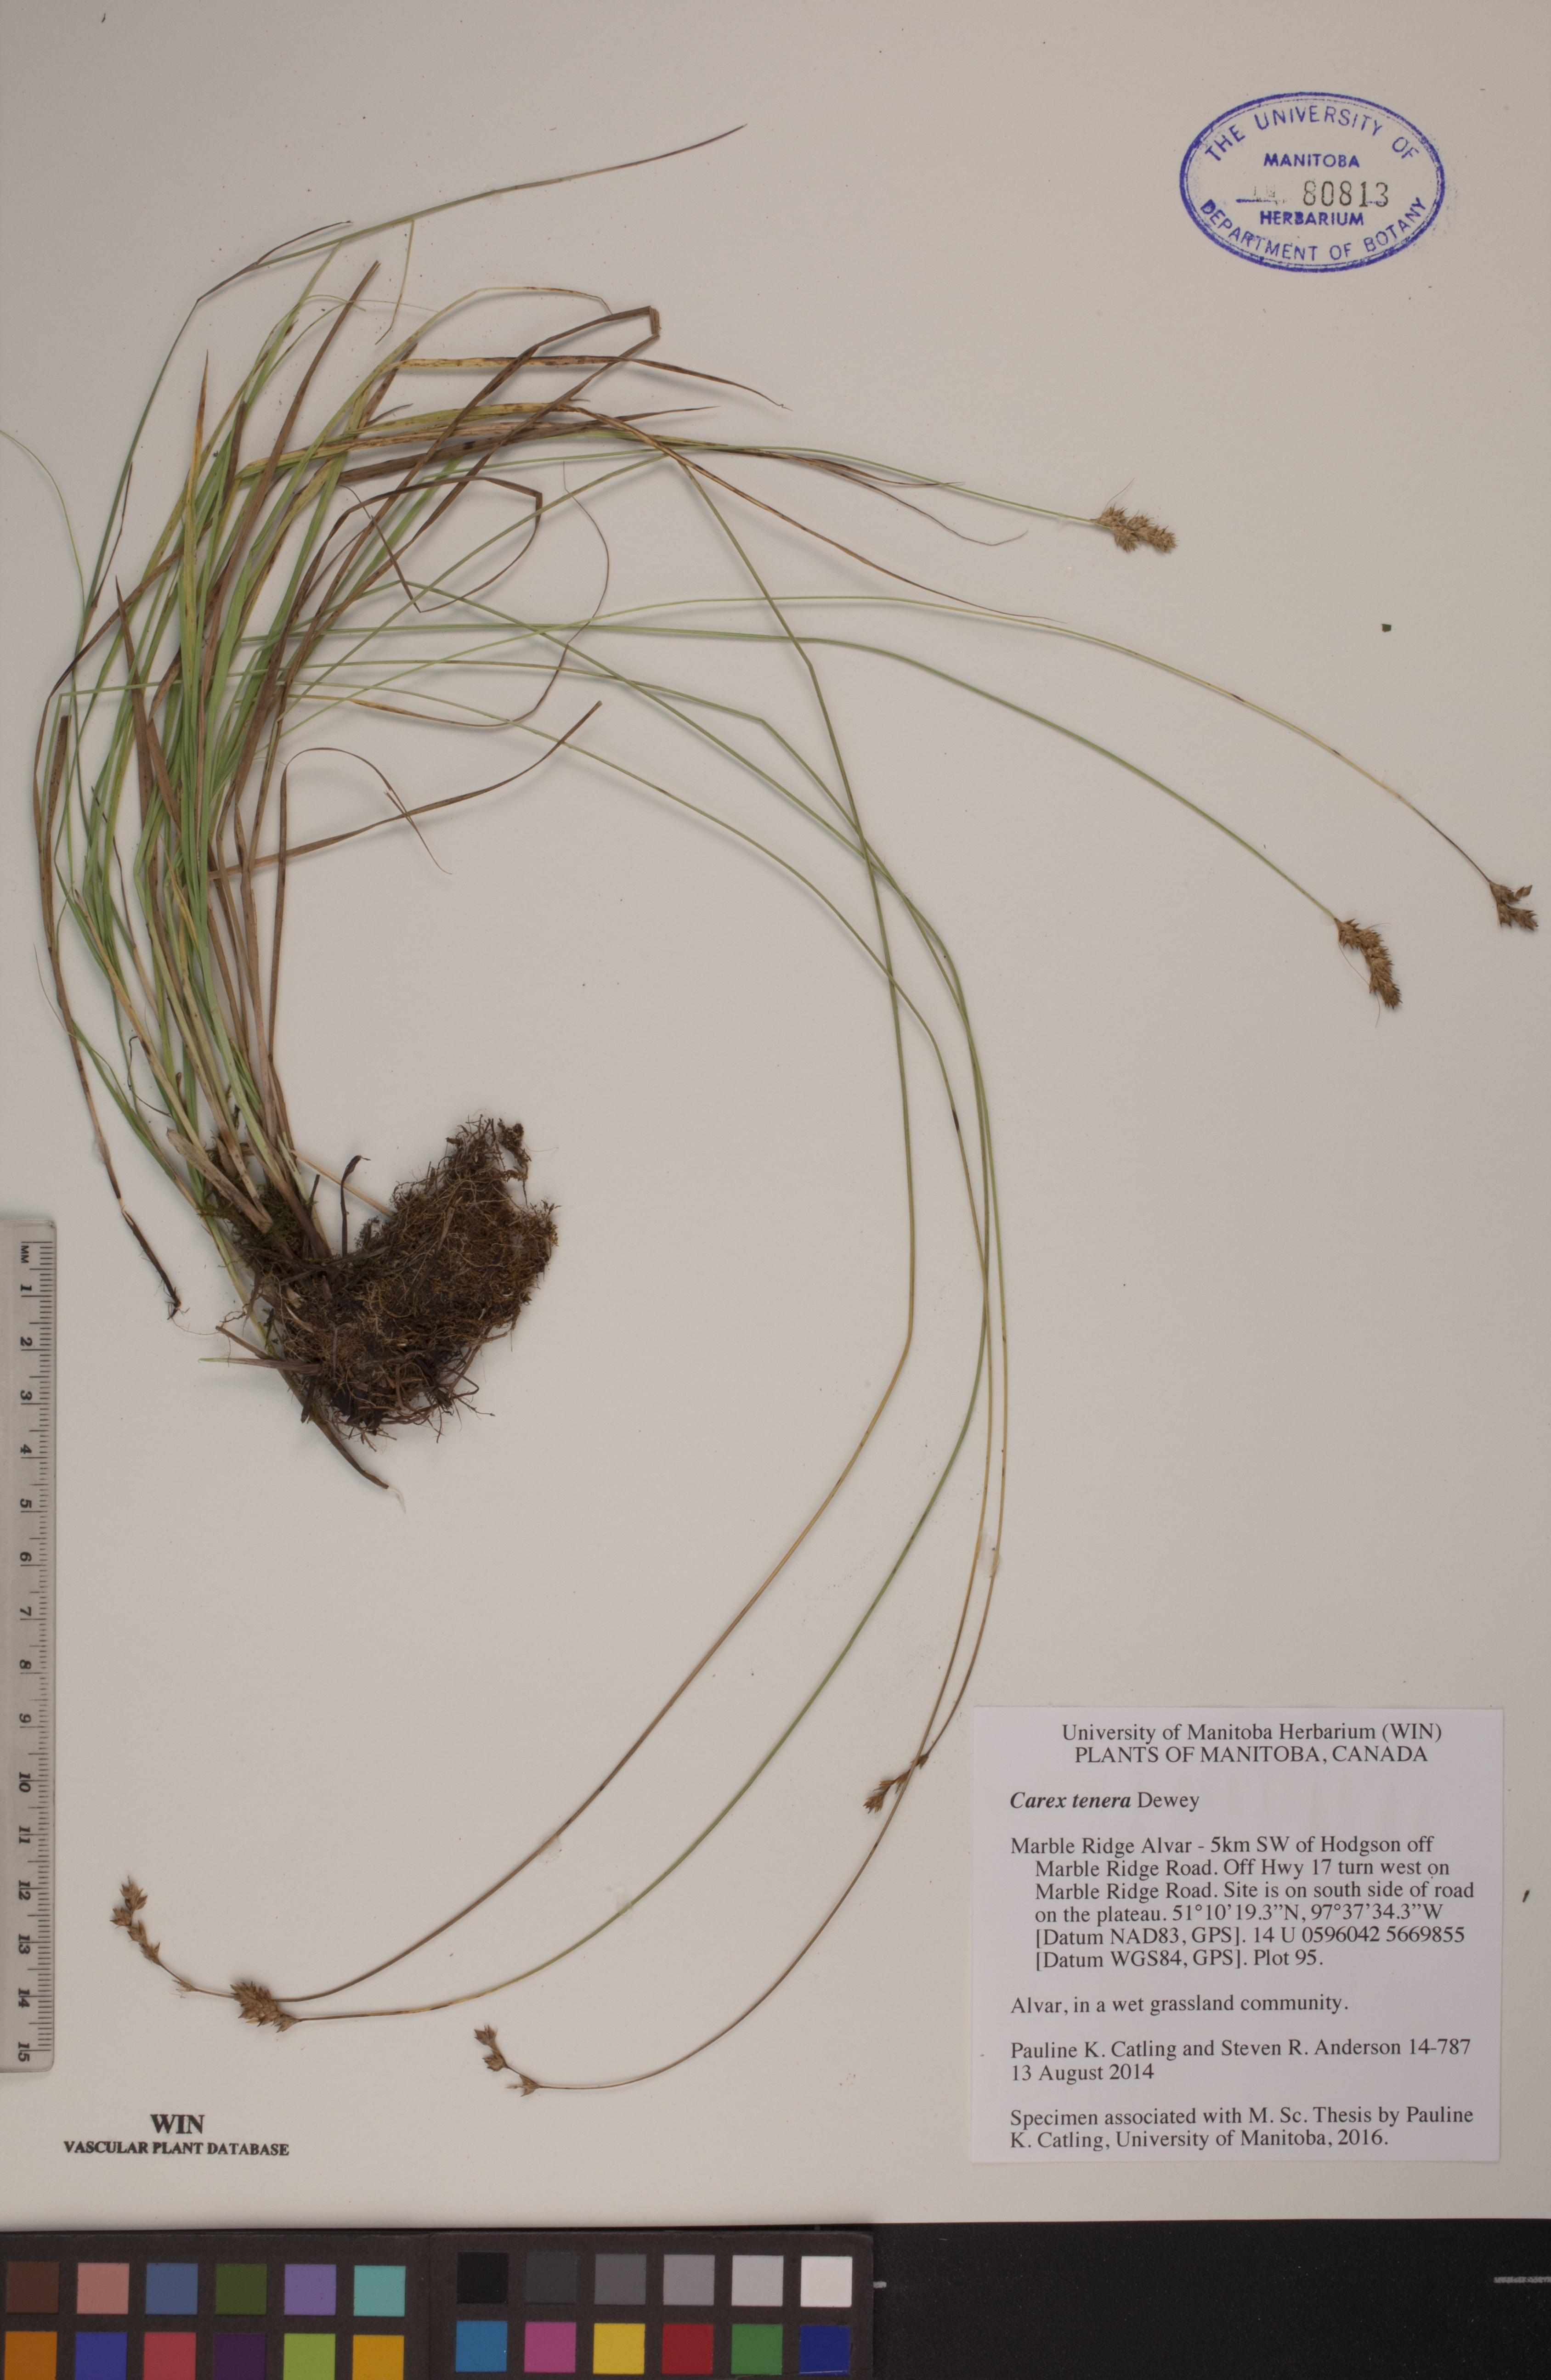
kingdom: Plantae
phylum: Tracheophyta
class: Liliopsida
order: Poales
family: Cyperaceae
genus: Carex
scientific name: Carex tenera
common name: Broad-fruited sedge
